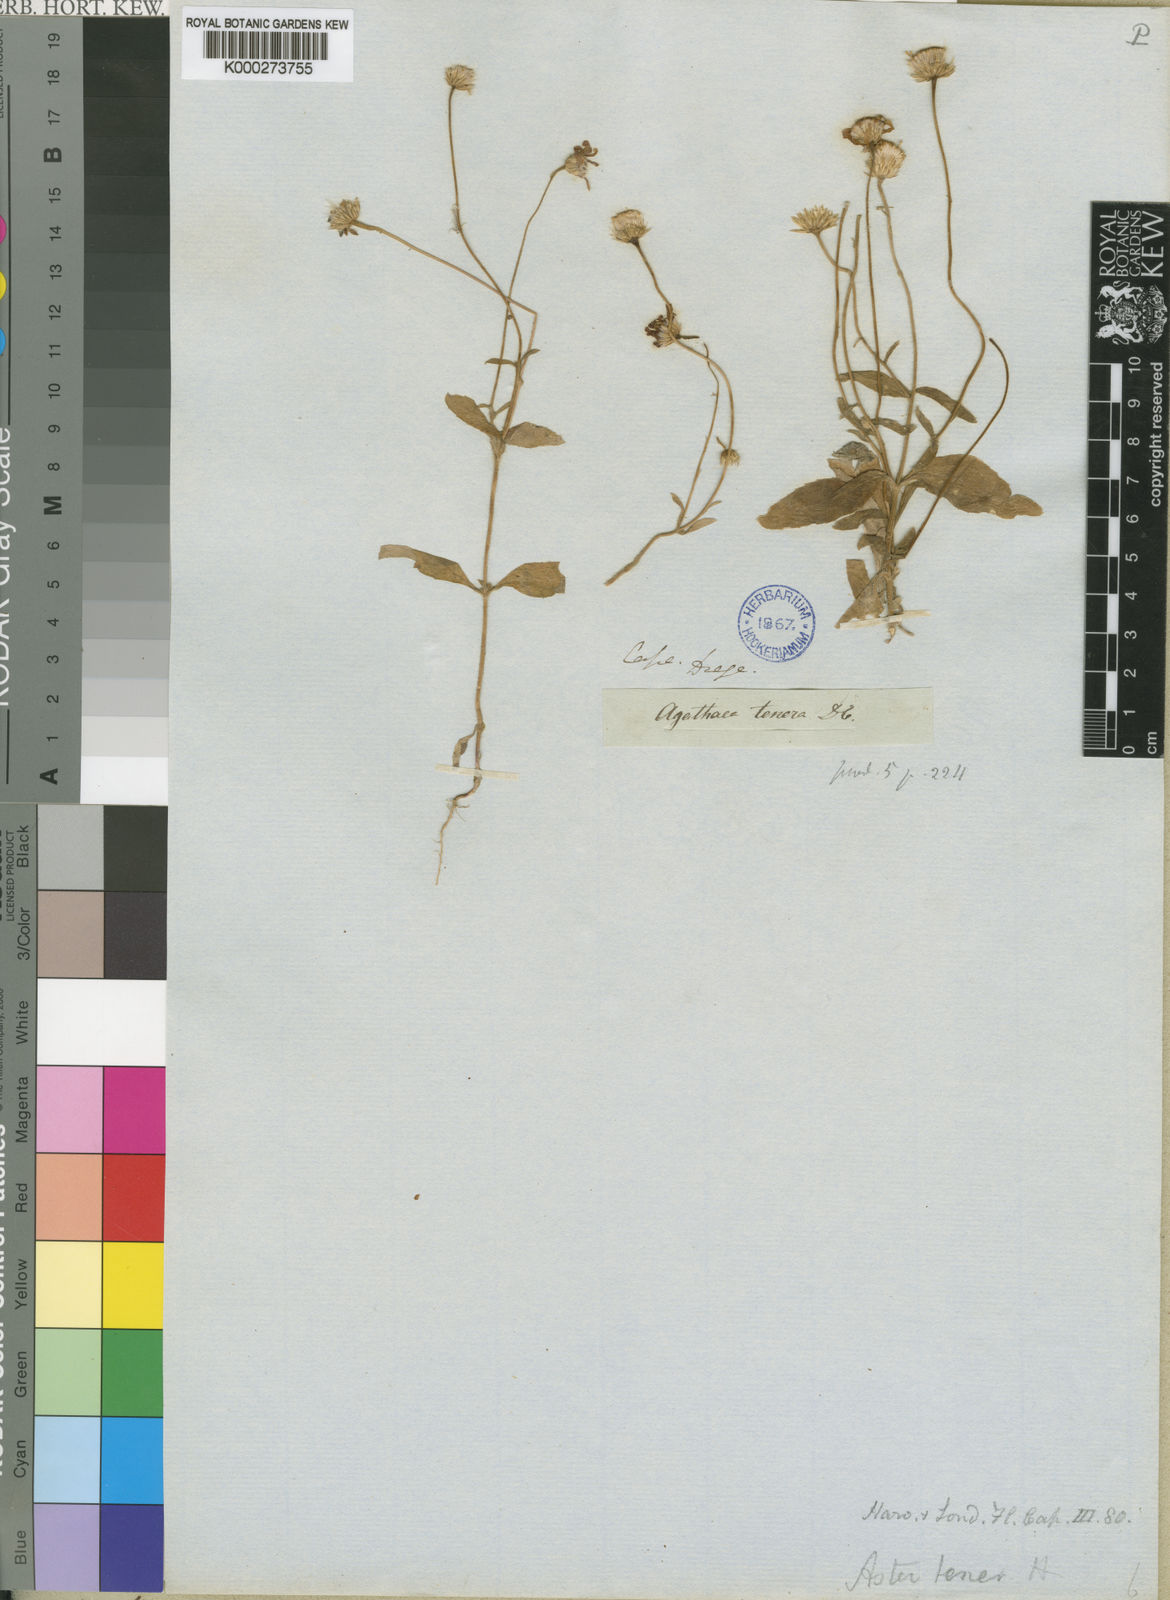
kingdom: Plantae
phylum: Tracheophyta
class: Magnoliopsida
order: Asterales
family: Asteraceae
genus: Felicia
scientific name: Felicia tenera
